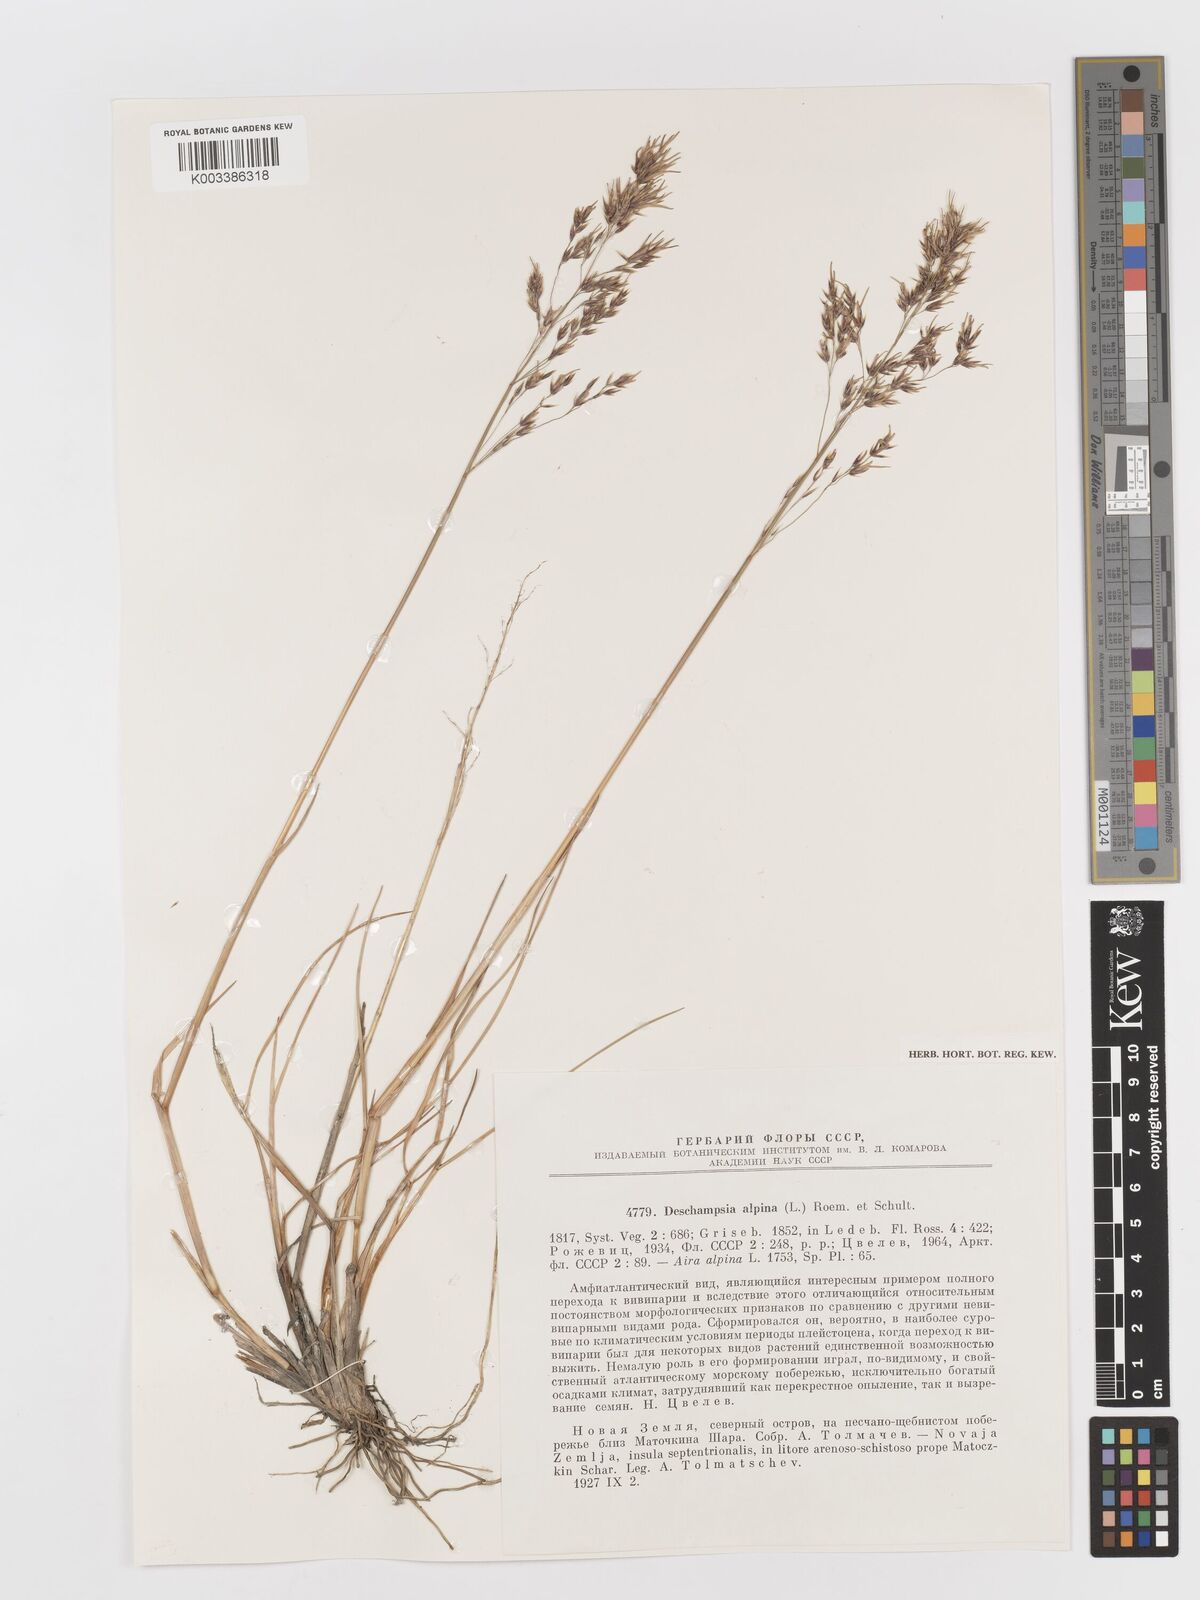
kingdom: Plantae
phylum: Tracheophyta
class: Liliopsida
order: Poales
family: Poaceae
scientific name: Poaceae
